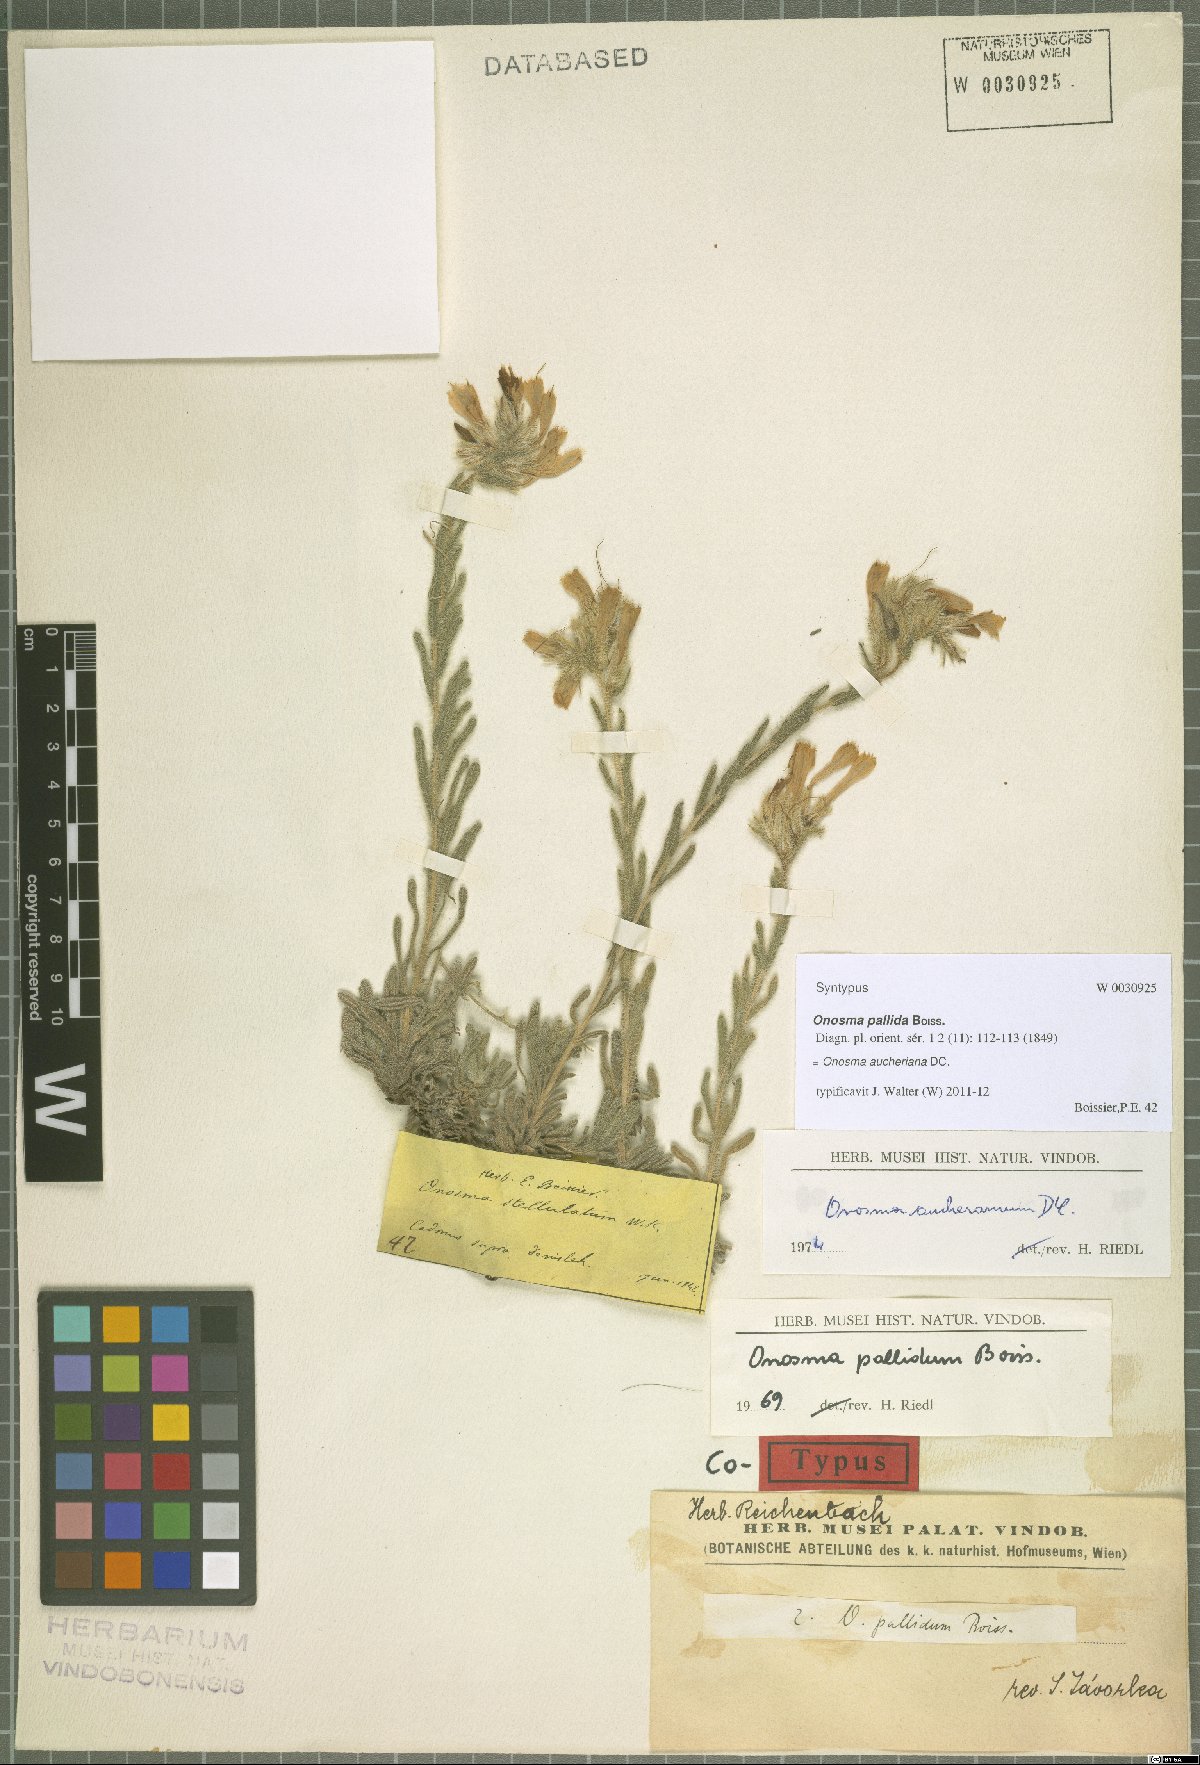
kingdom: Plantae
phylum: Tracheophyta
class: Magnoliopsida
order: Boraginales
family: Boraginaceae
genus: Onosma
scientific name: Onosma aucheriana
